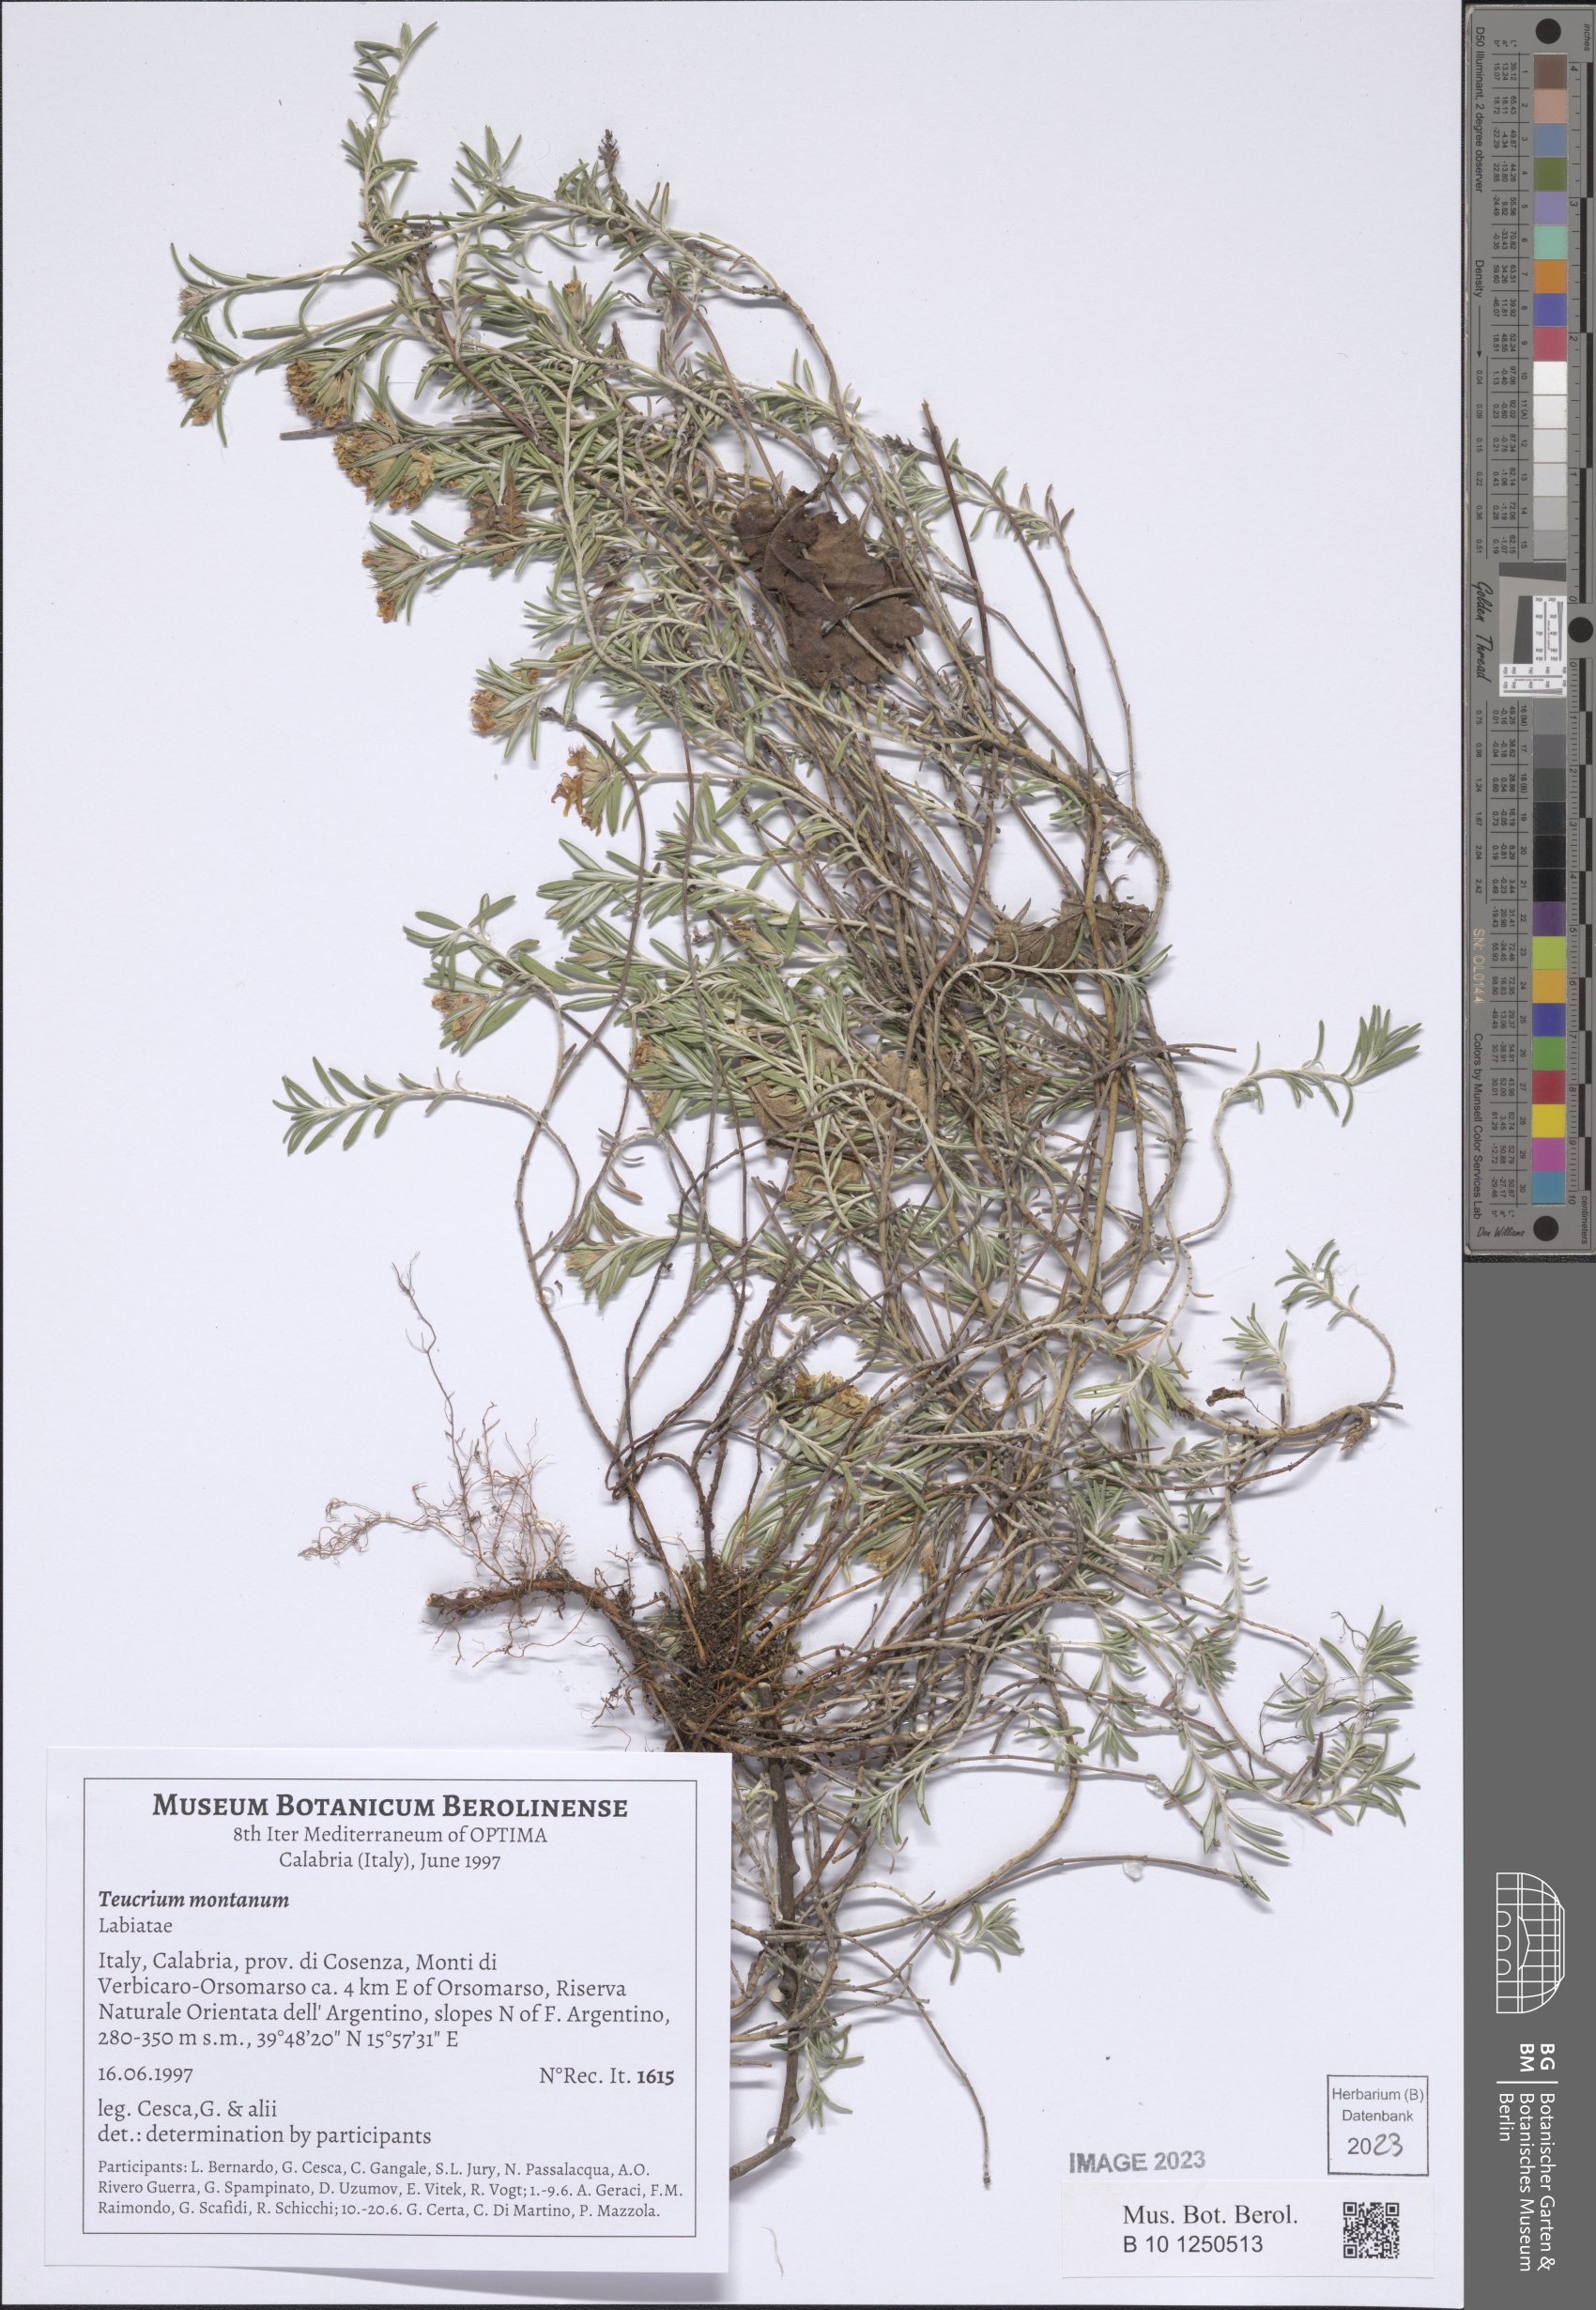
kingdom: Plantae
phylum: Tracheophyta
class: Magnoliopsida
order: Lamiales
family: Lamiaceae
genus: Teucrium
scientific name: Teucrium montanum
